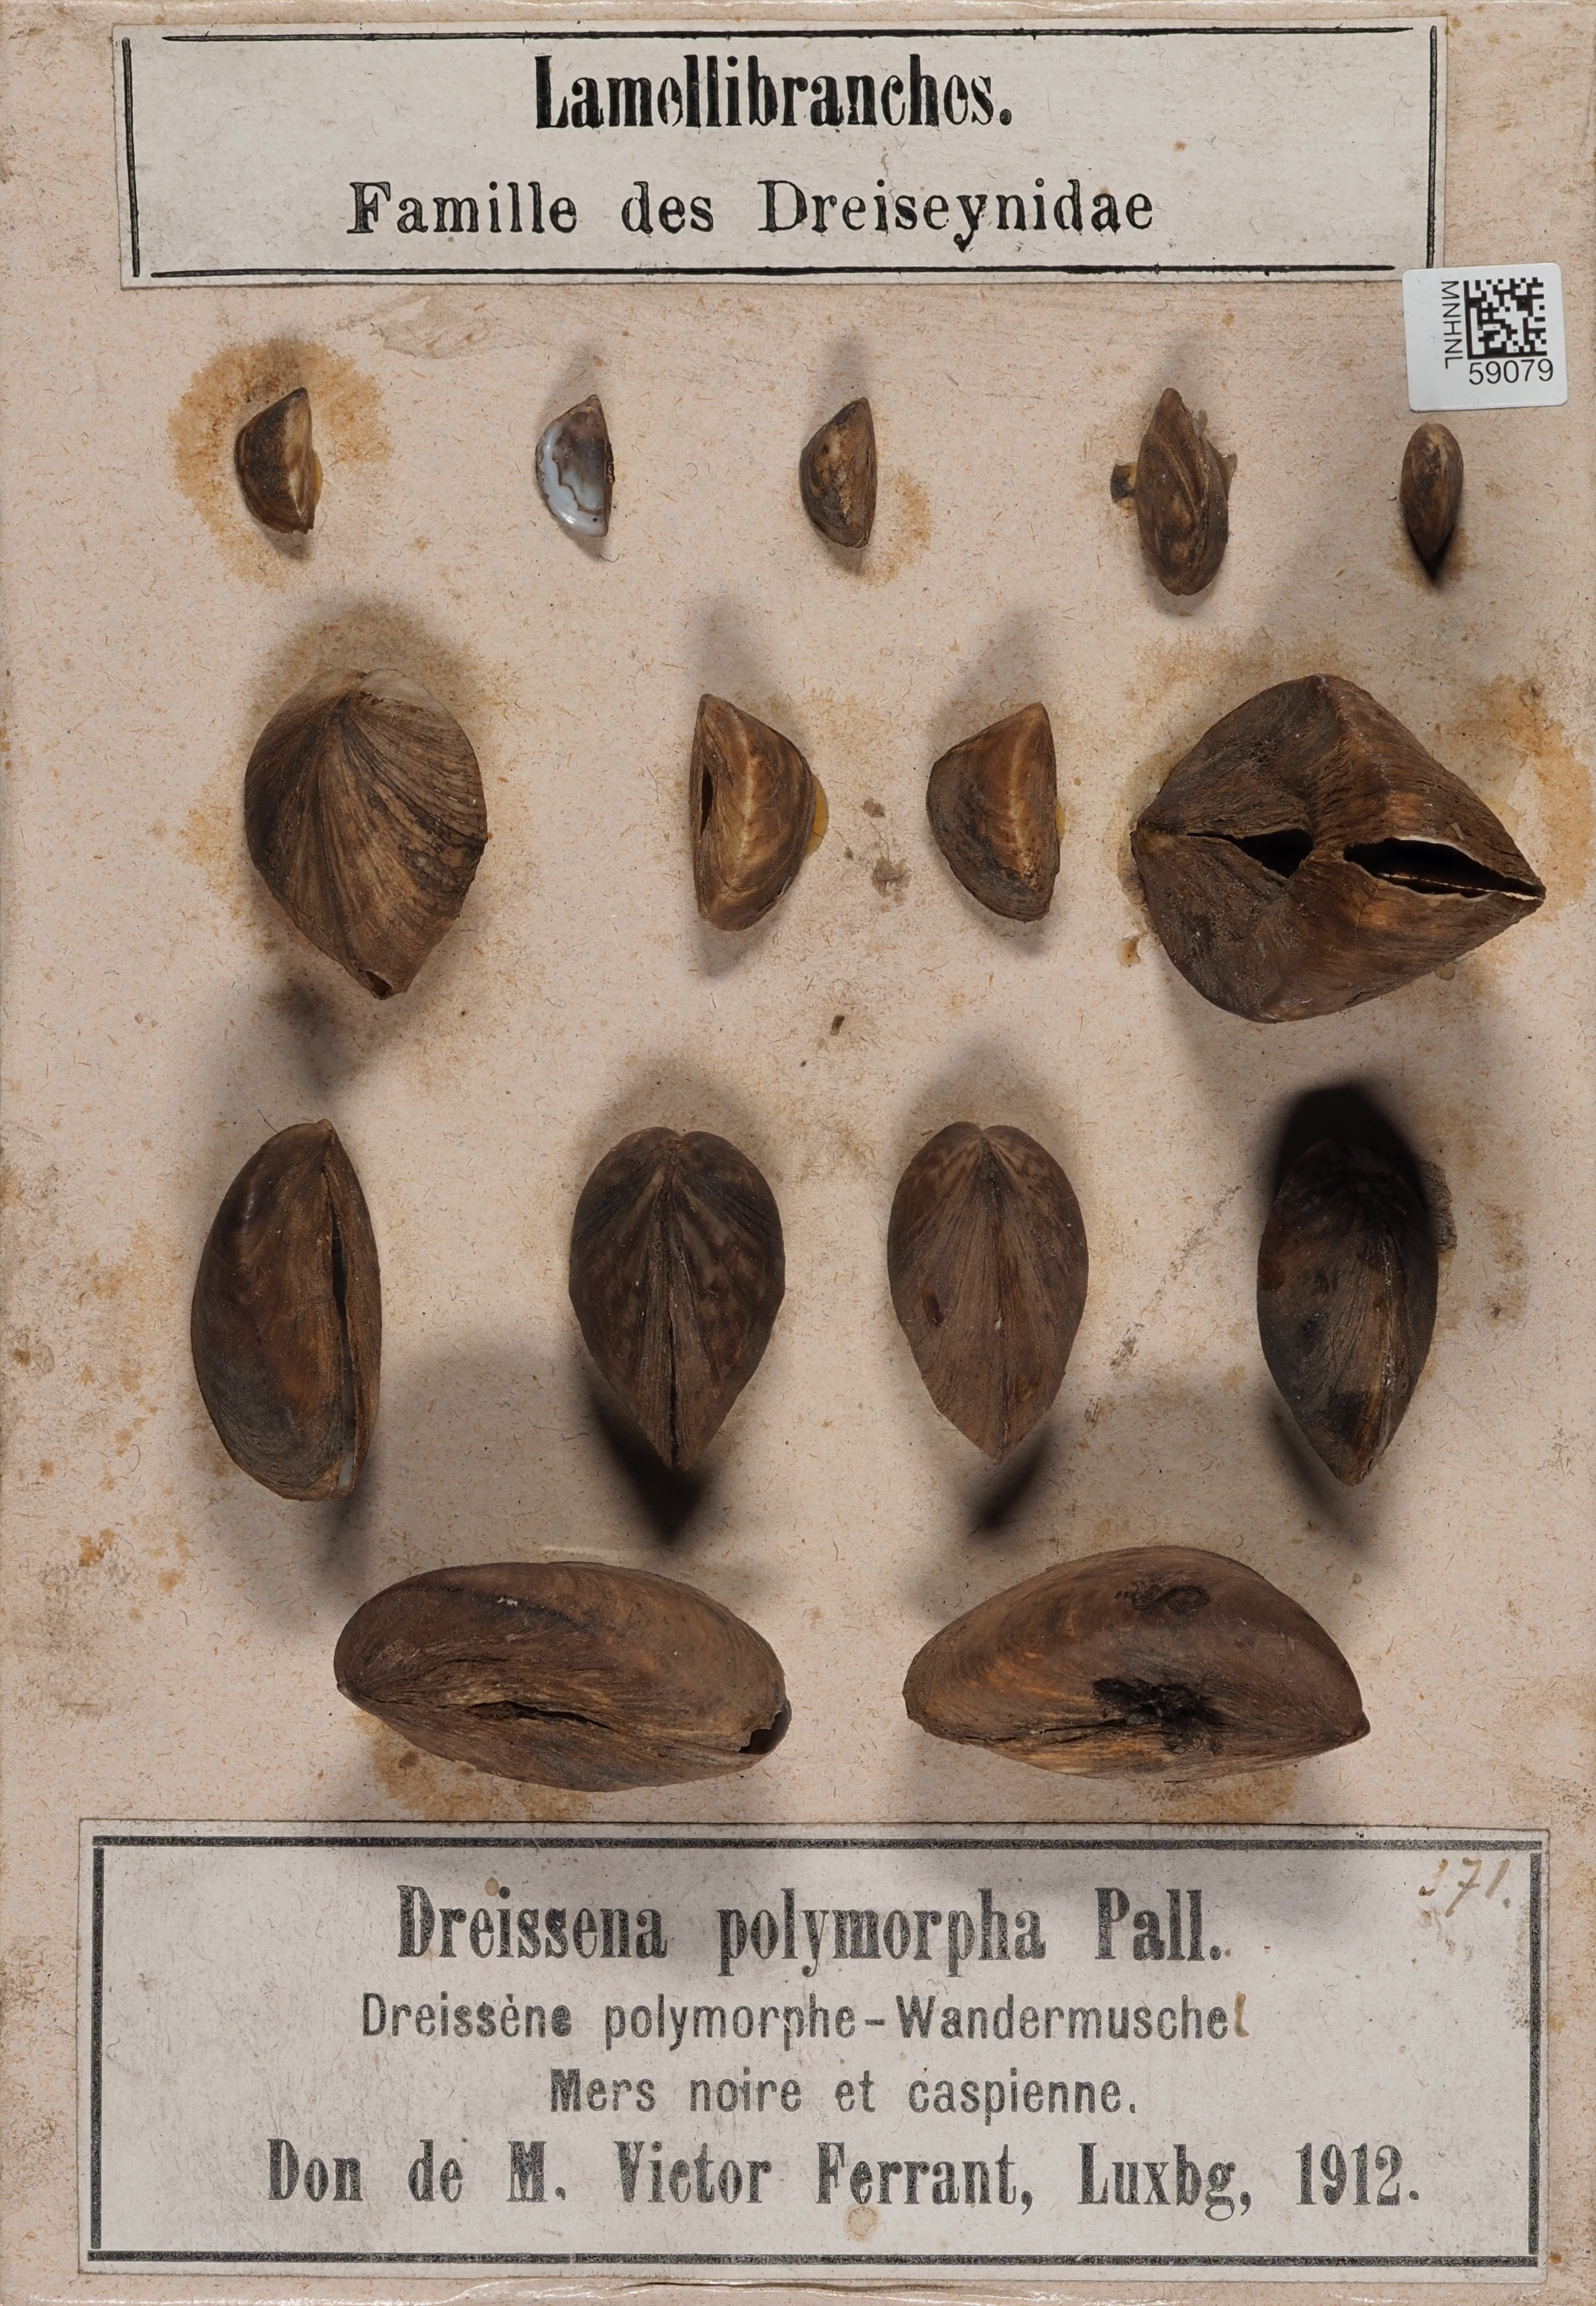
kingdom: Animalia
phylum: Mollusca
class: Bivalvia
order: Myida
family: Dreissenidae
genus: Dreissena
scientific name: Dreissena polymorpha
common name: Zebra mussel
